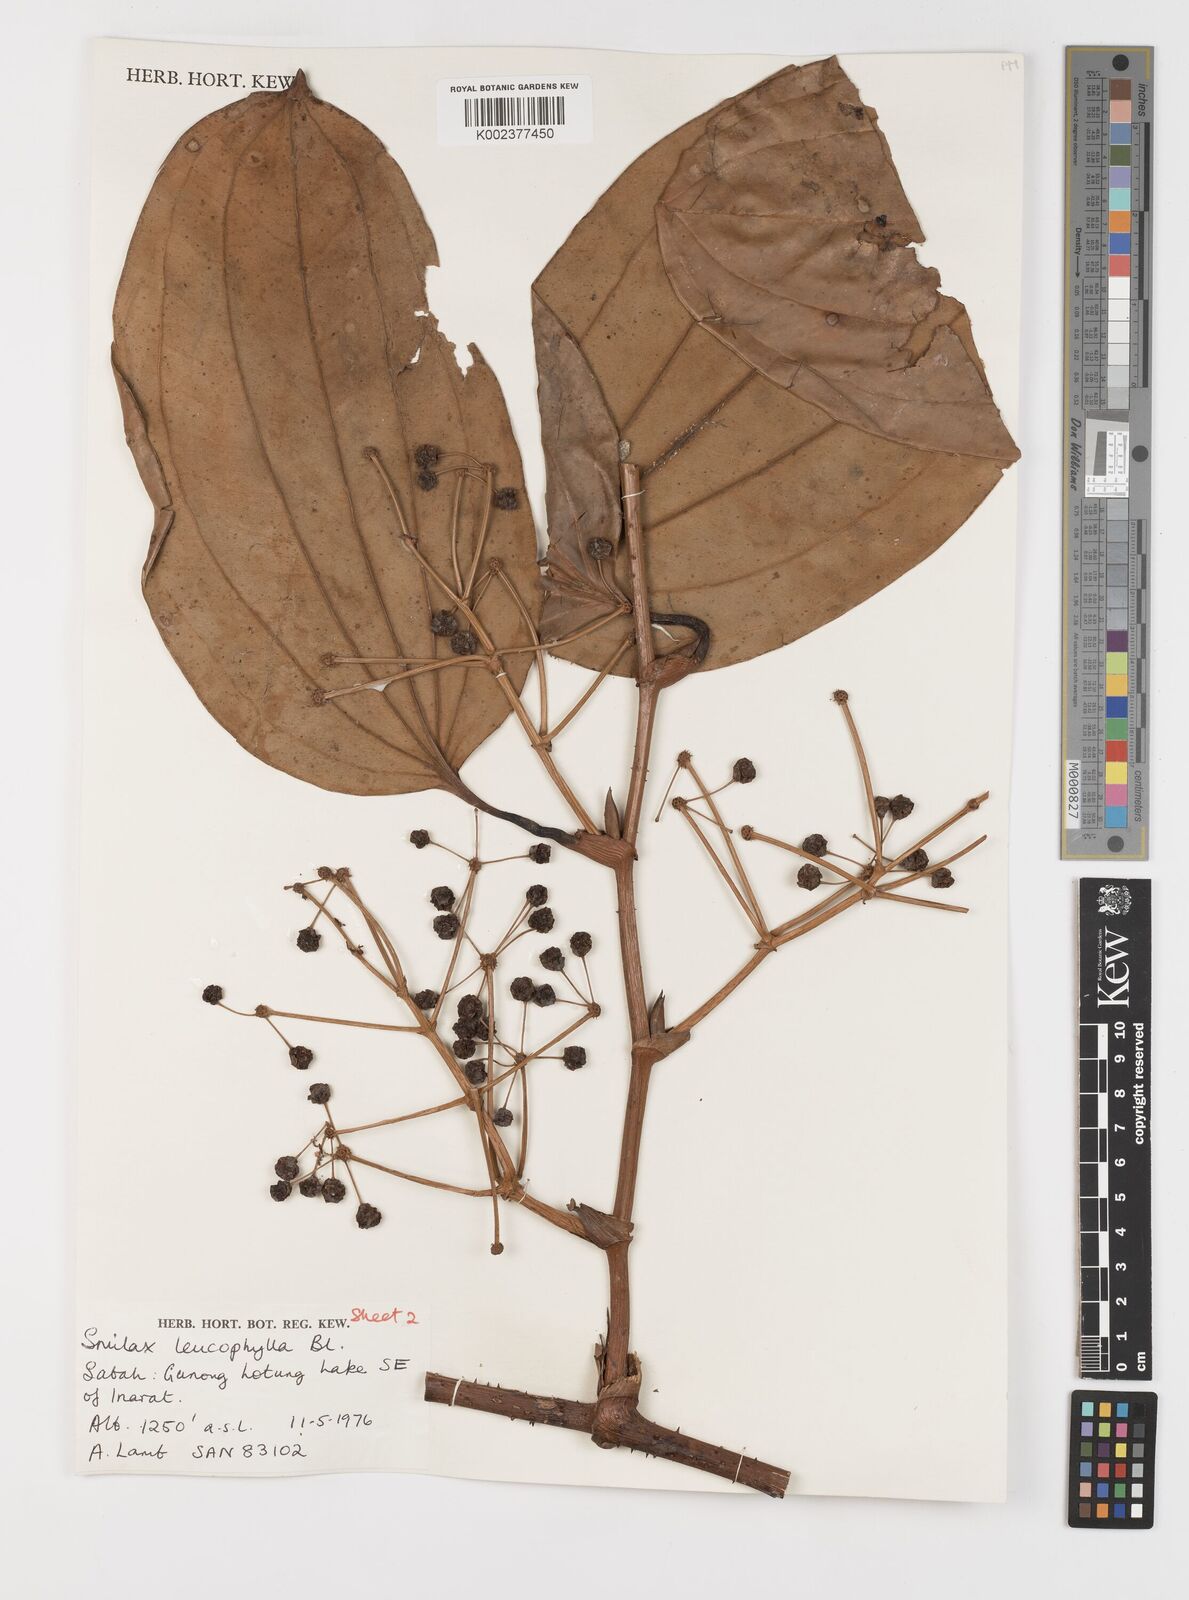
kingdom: Plantae
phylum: Tracheophyta
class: Liliopsida
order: Liliales
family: Smilacaceae
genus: Smilax
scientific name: Smilax borneensis
